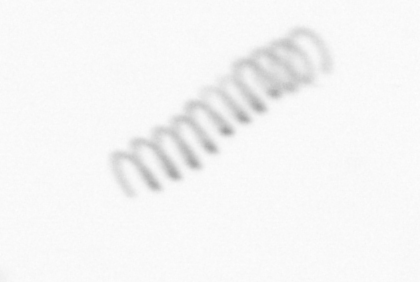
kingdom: Chromista
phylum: Ochrophyta
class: Bacillariophyceae
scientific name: Bacillariophyceae
